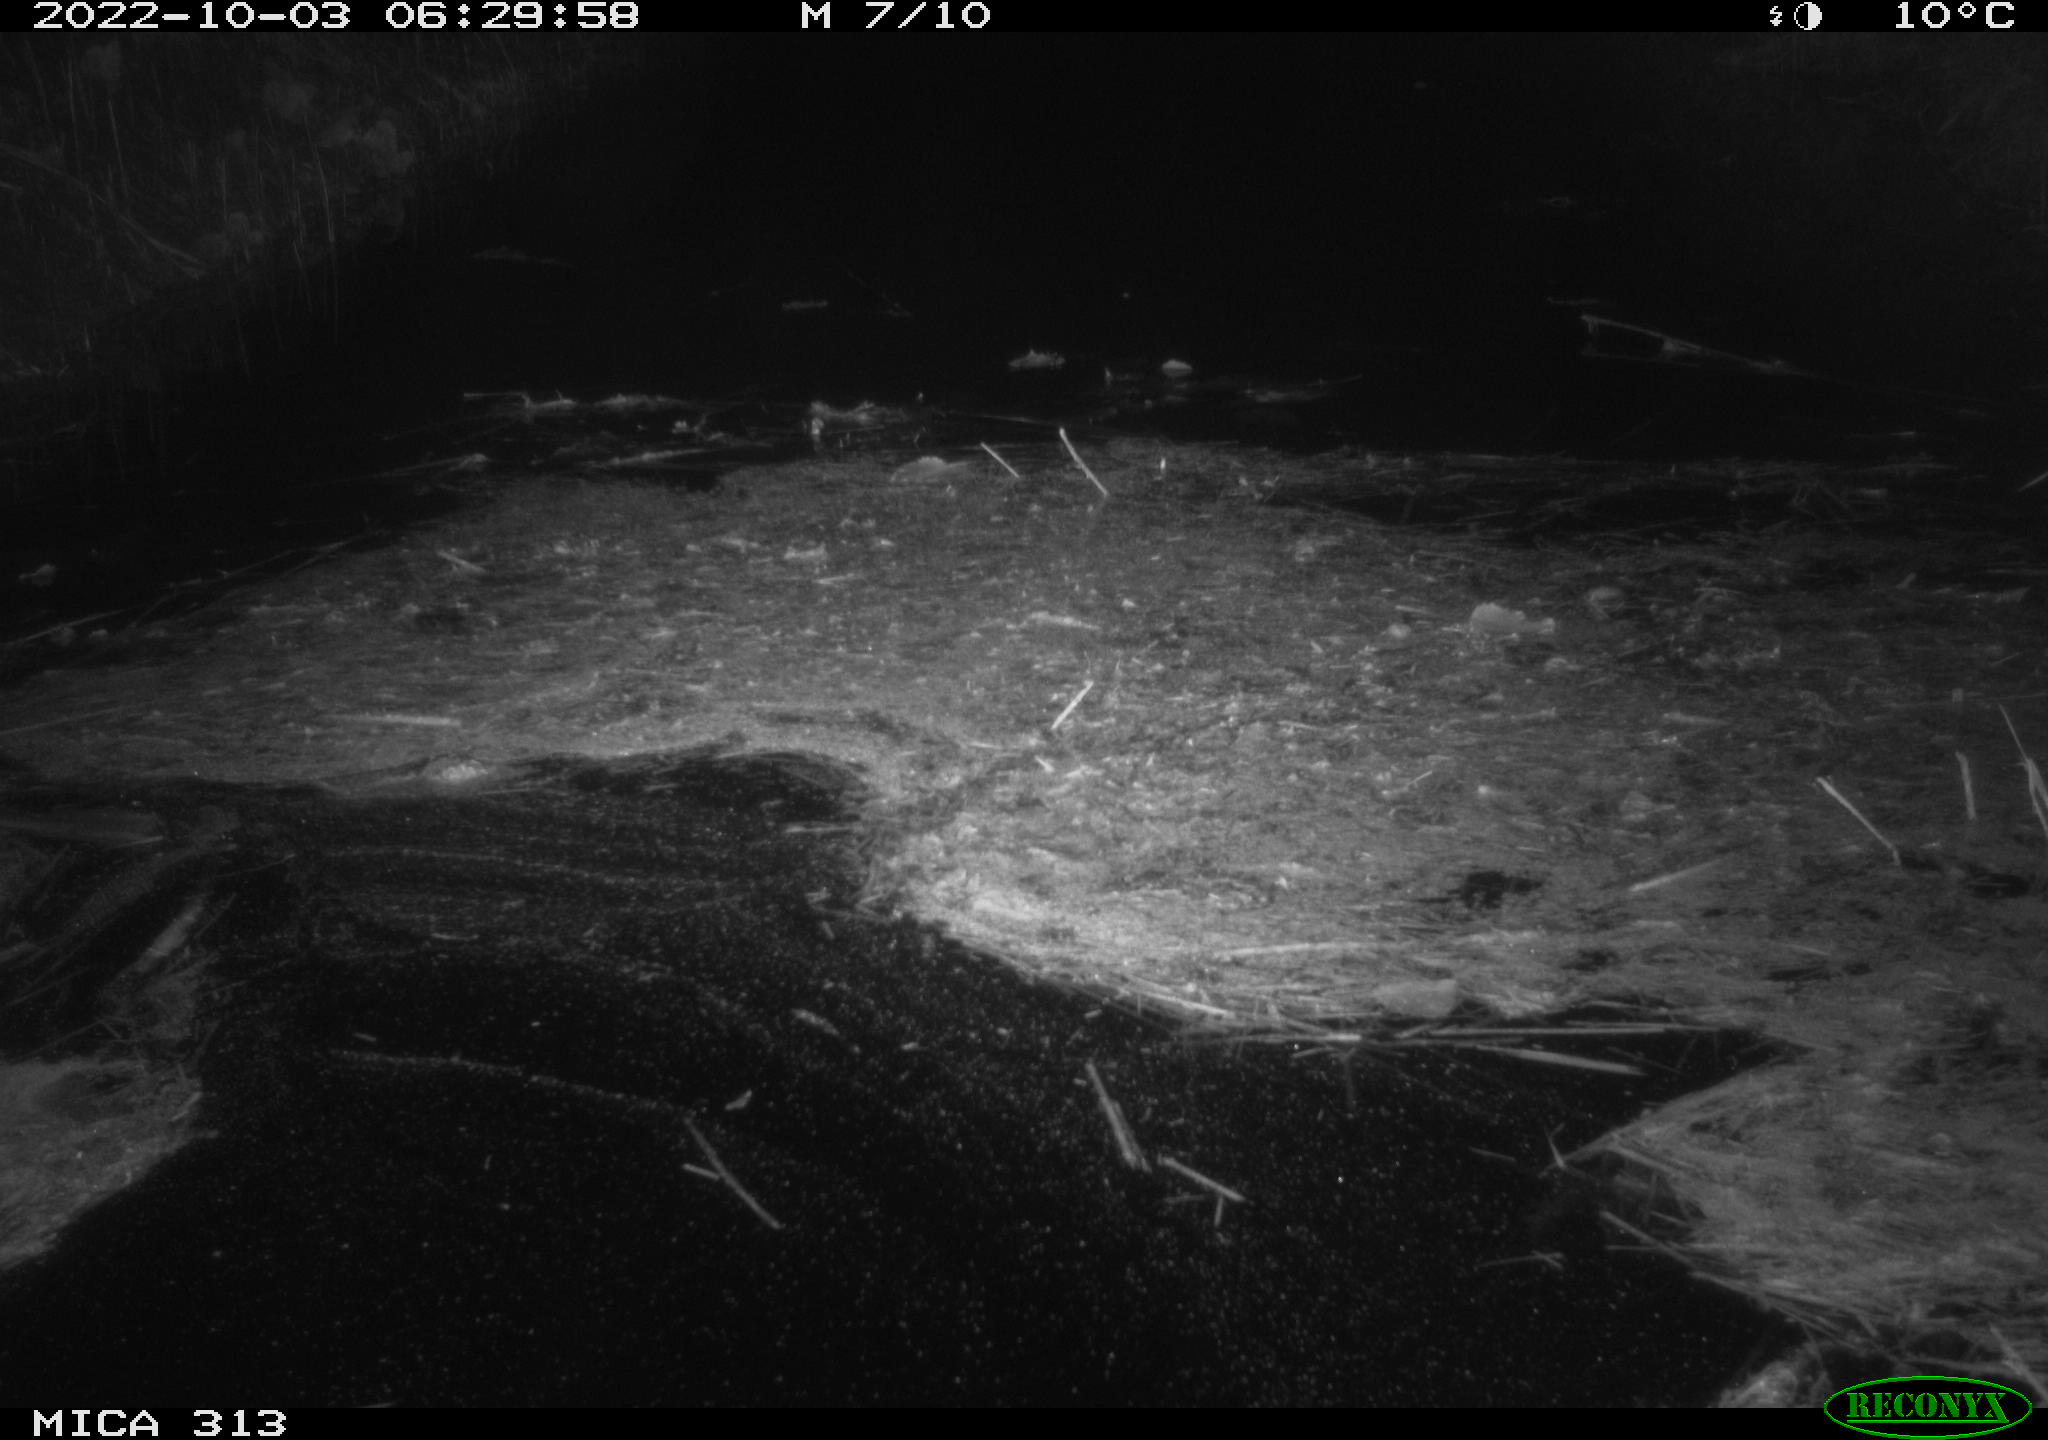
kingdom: Animalia
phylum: Chordata
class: Mammalia
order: Rodentia
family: Muridae
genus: Rattus
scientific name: Rattus norvegicus
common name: Brown rat
